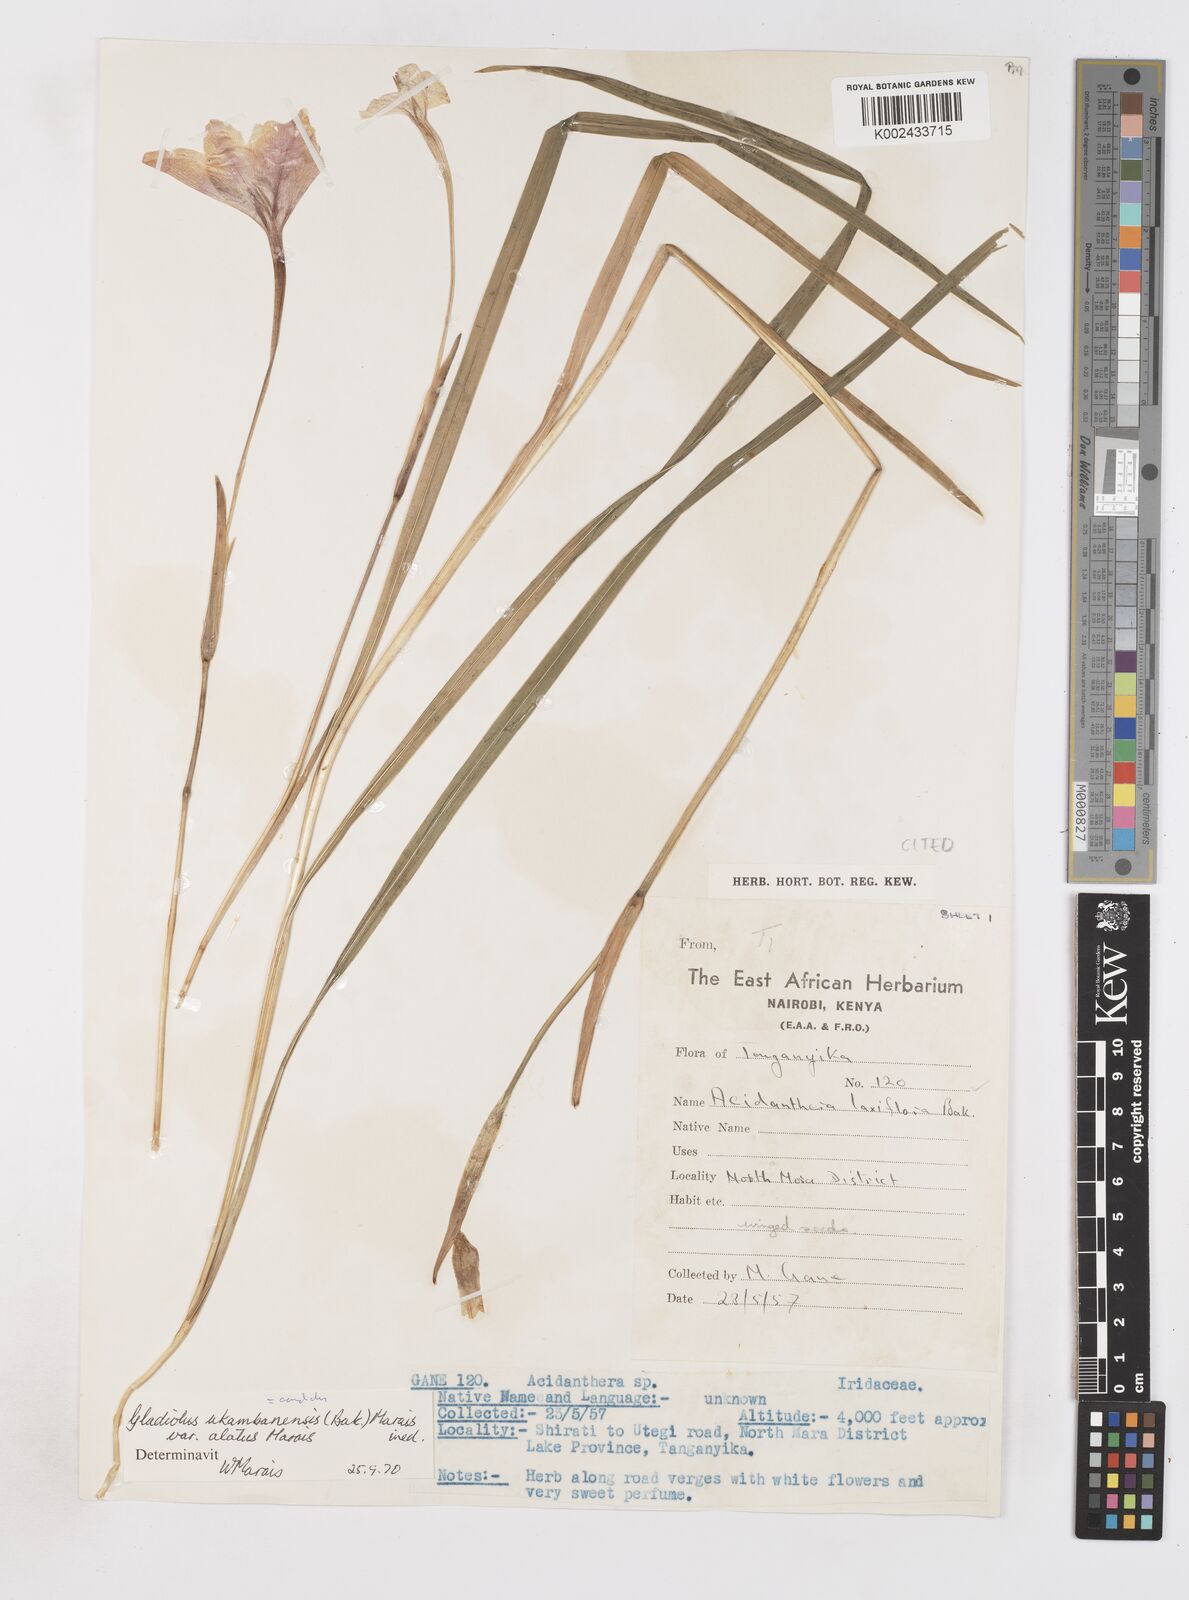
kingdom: Plantae
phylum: Tracheophyta
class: Liliopsida
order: Asparagales
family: Iridaceae
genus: Gladiolus
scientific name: Gladiolus candidus
